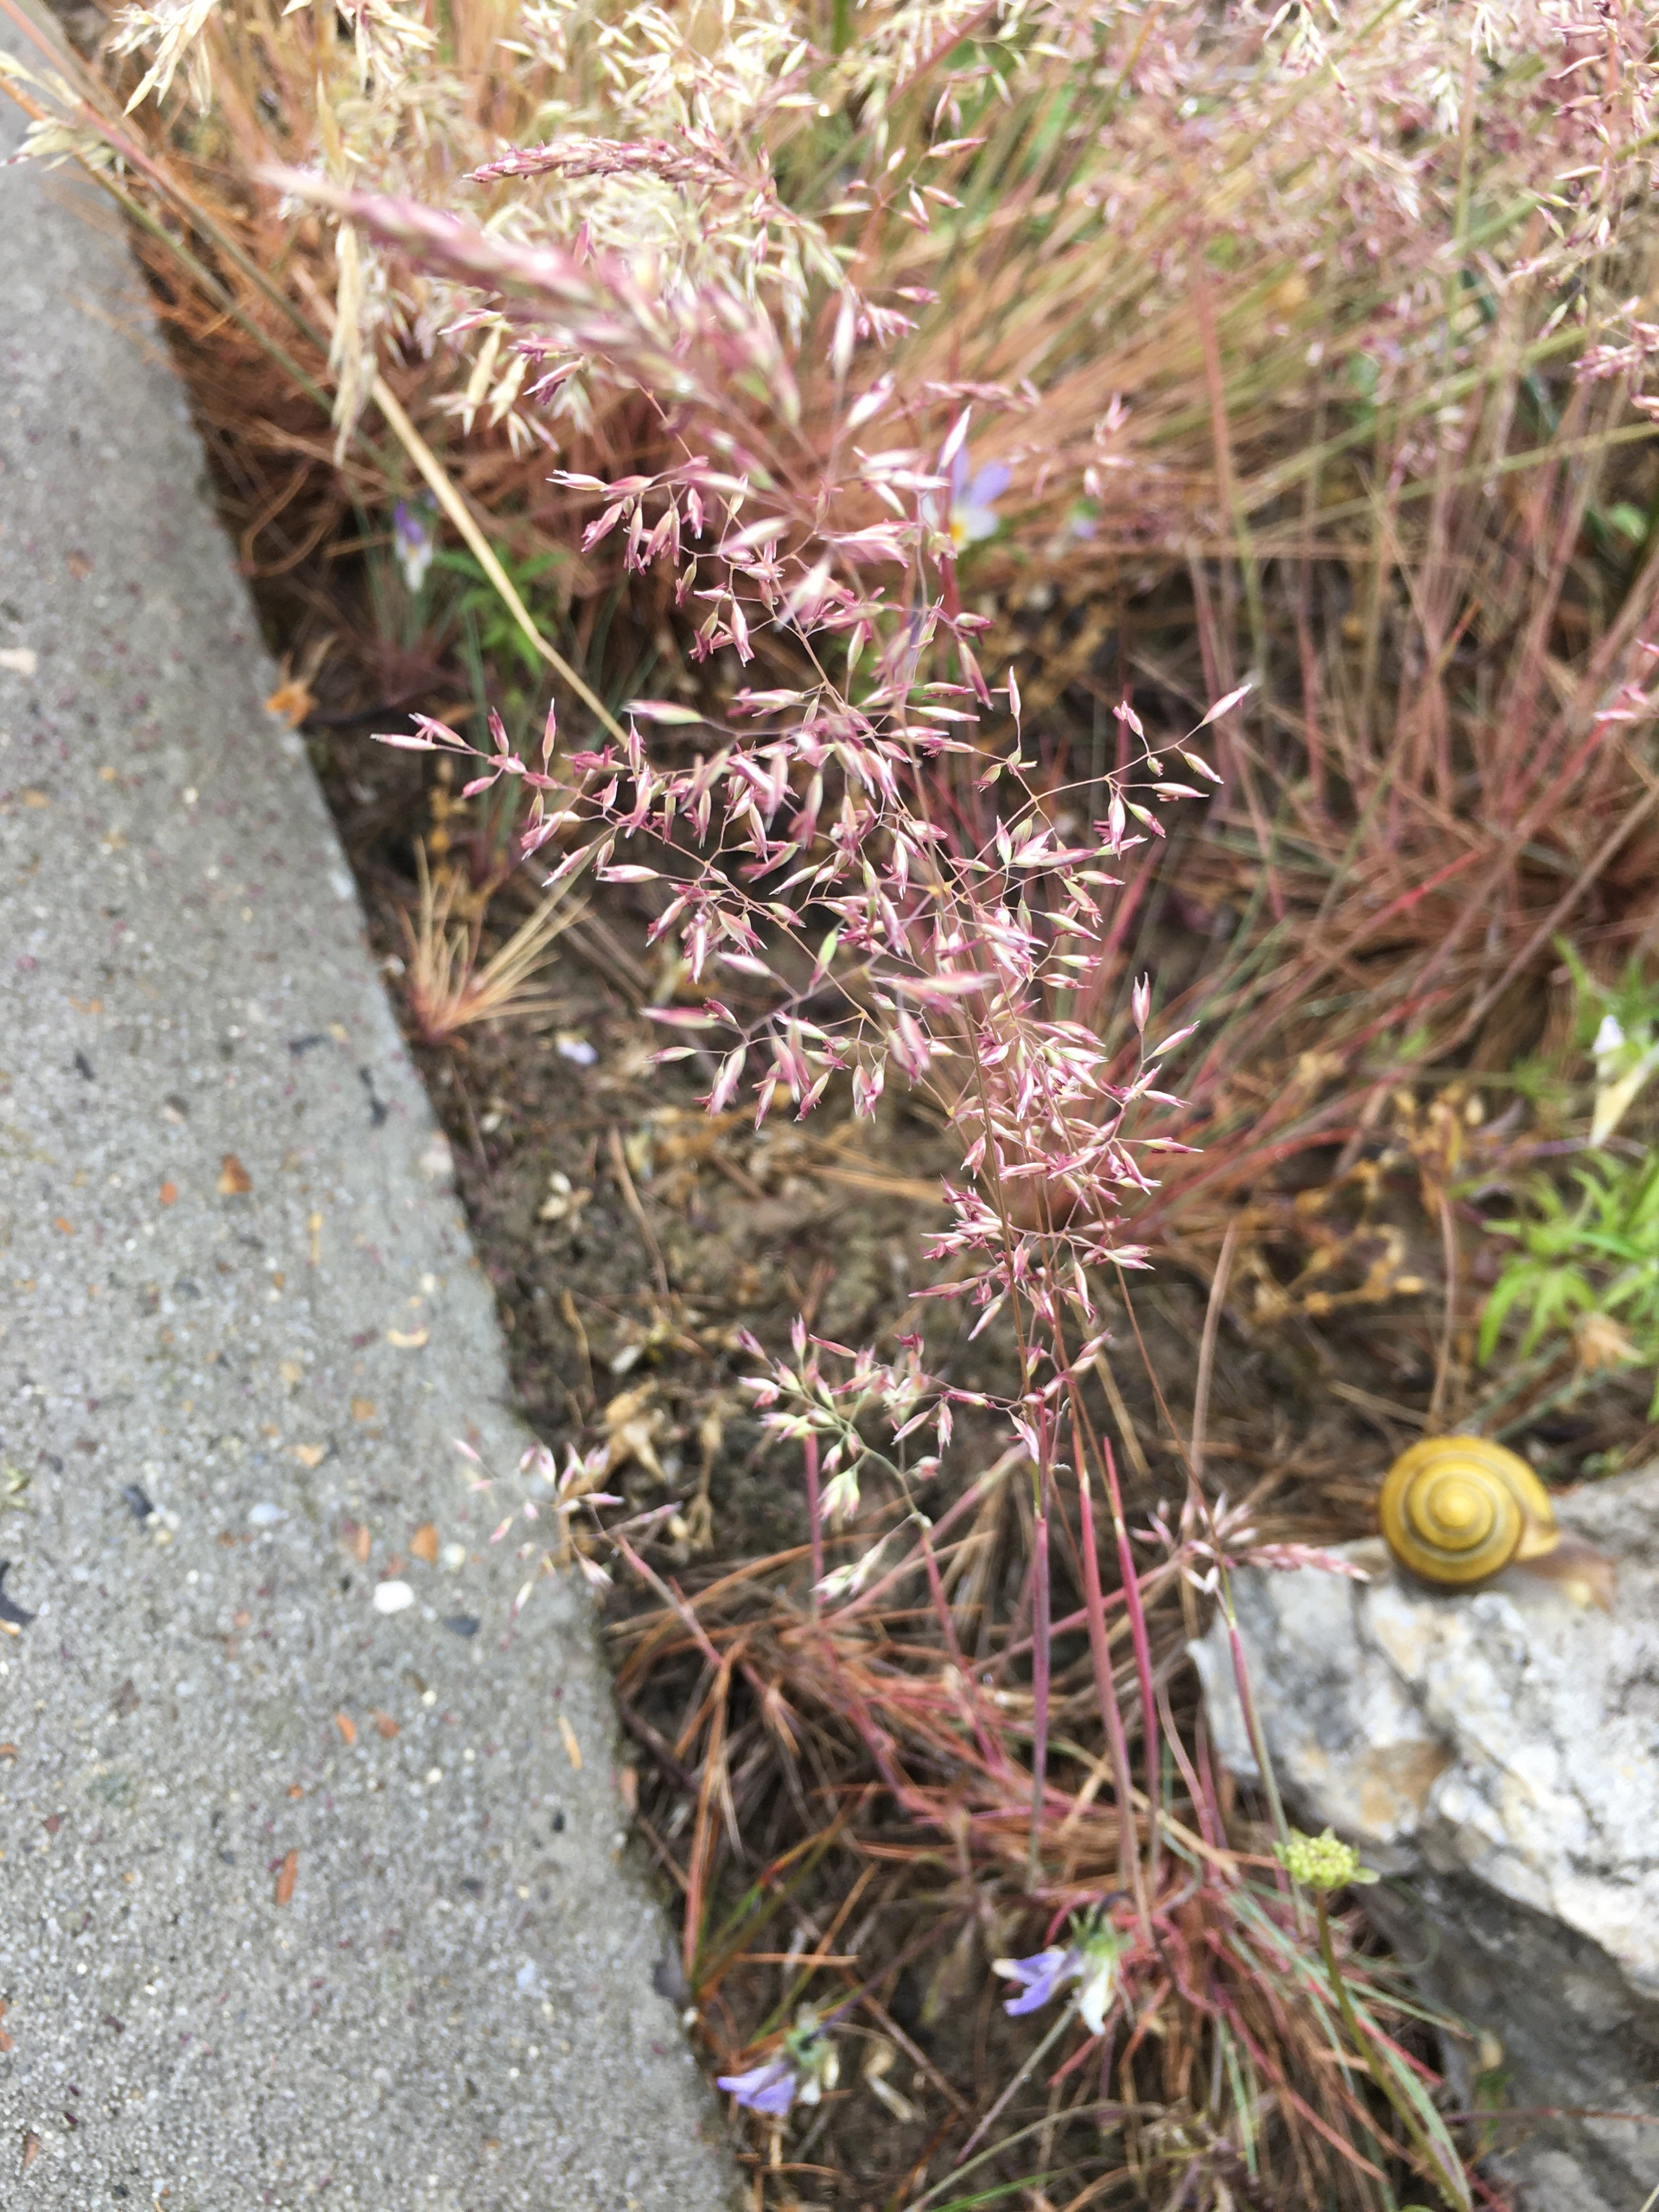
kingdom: Plantae
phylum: Tracheophyta
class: Liliopsida
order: Poales
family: Poaceae
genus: Corynephorus
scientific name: Corynephorus canescens
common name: Sandskæg
